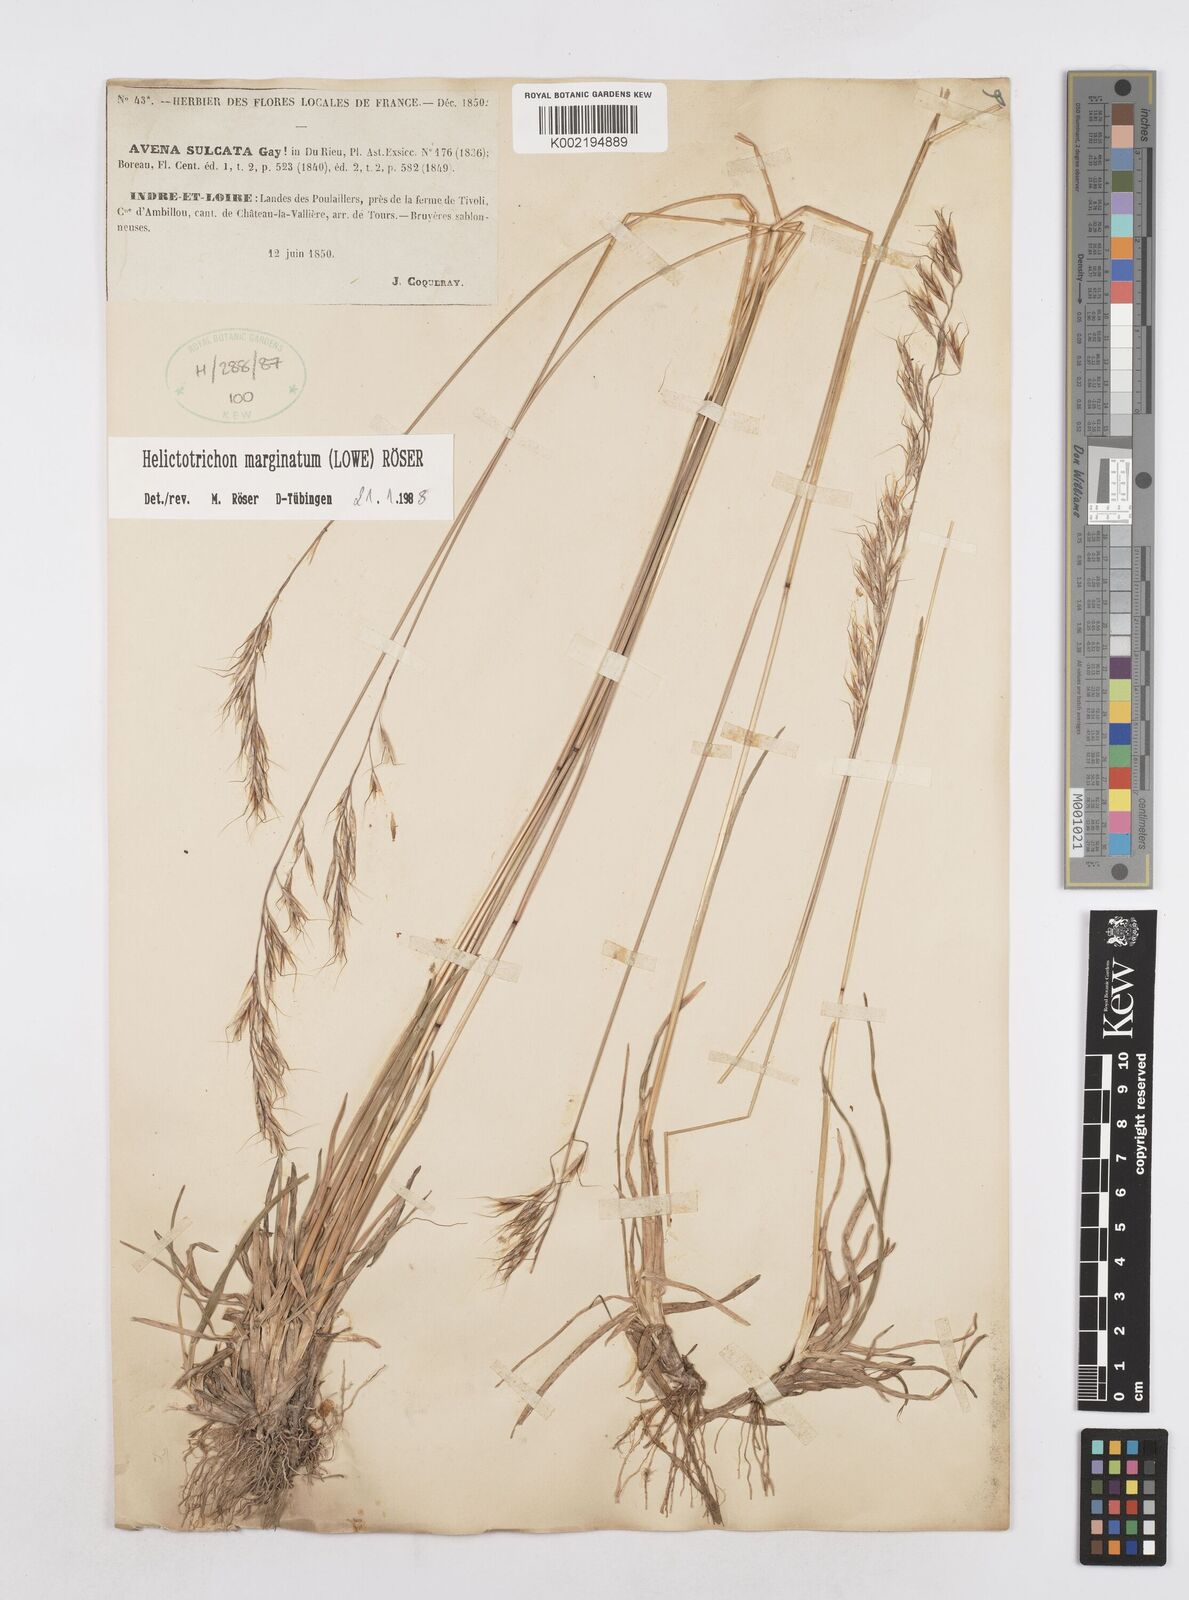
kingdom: Plantae
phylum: Tracheophyta
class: Liliopsida
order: Poales
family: Poaceae
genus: Helictotrichon
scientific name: Helictotrichon
